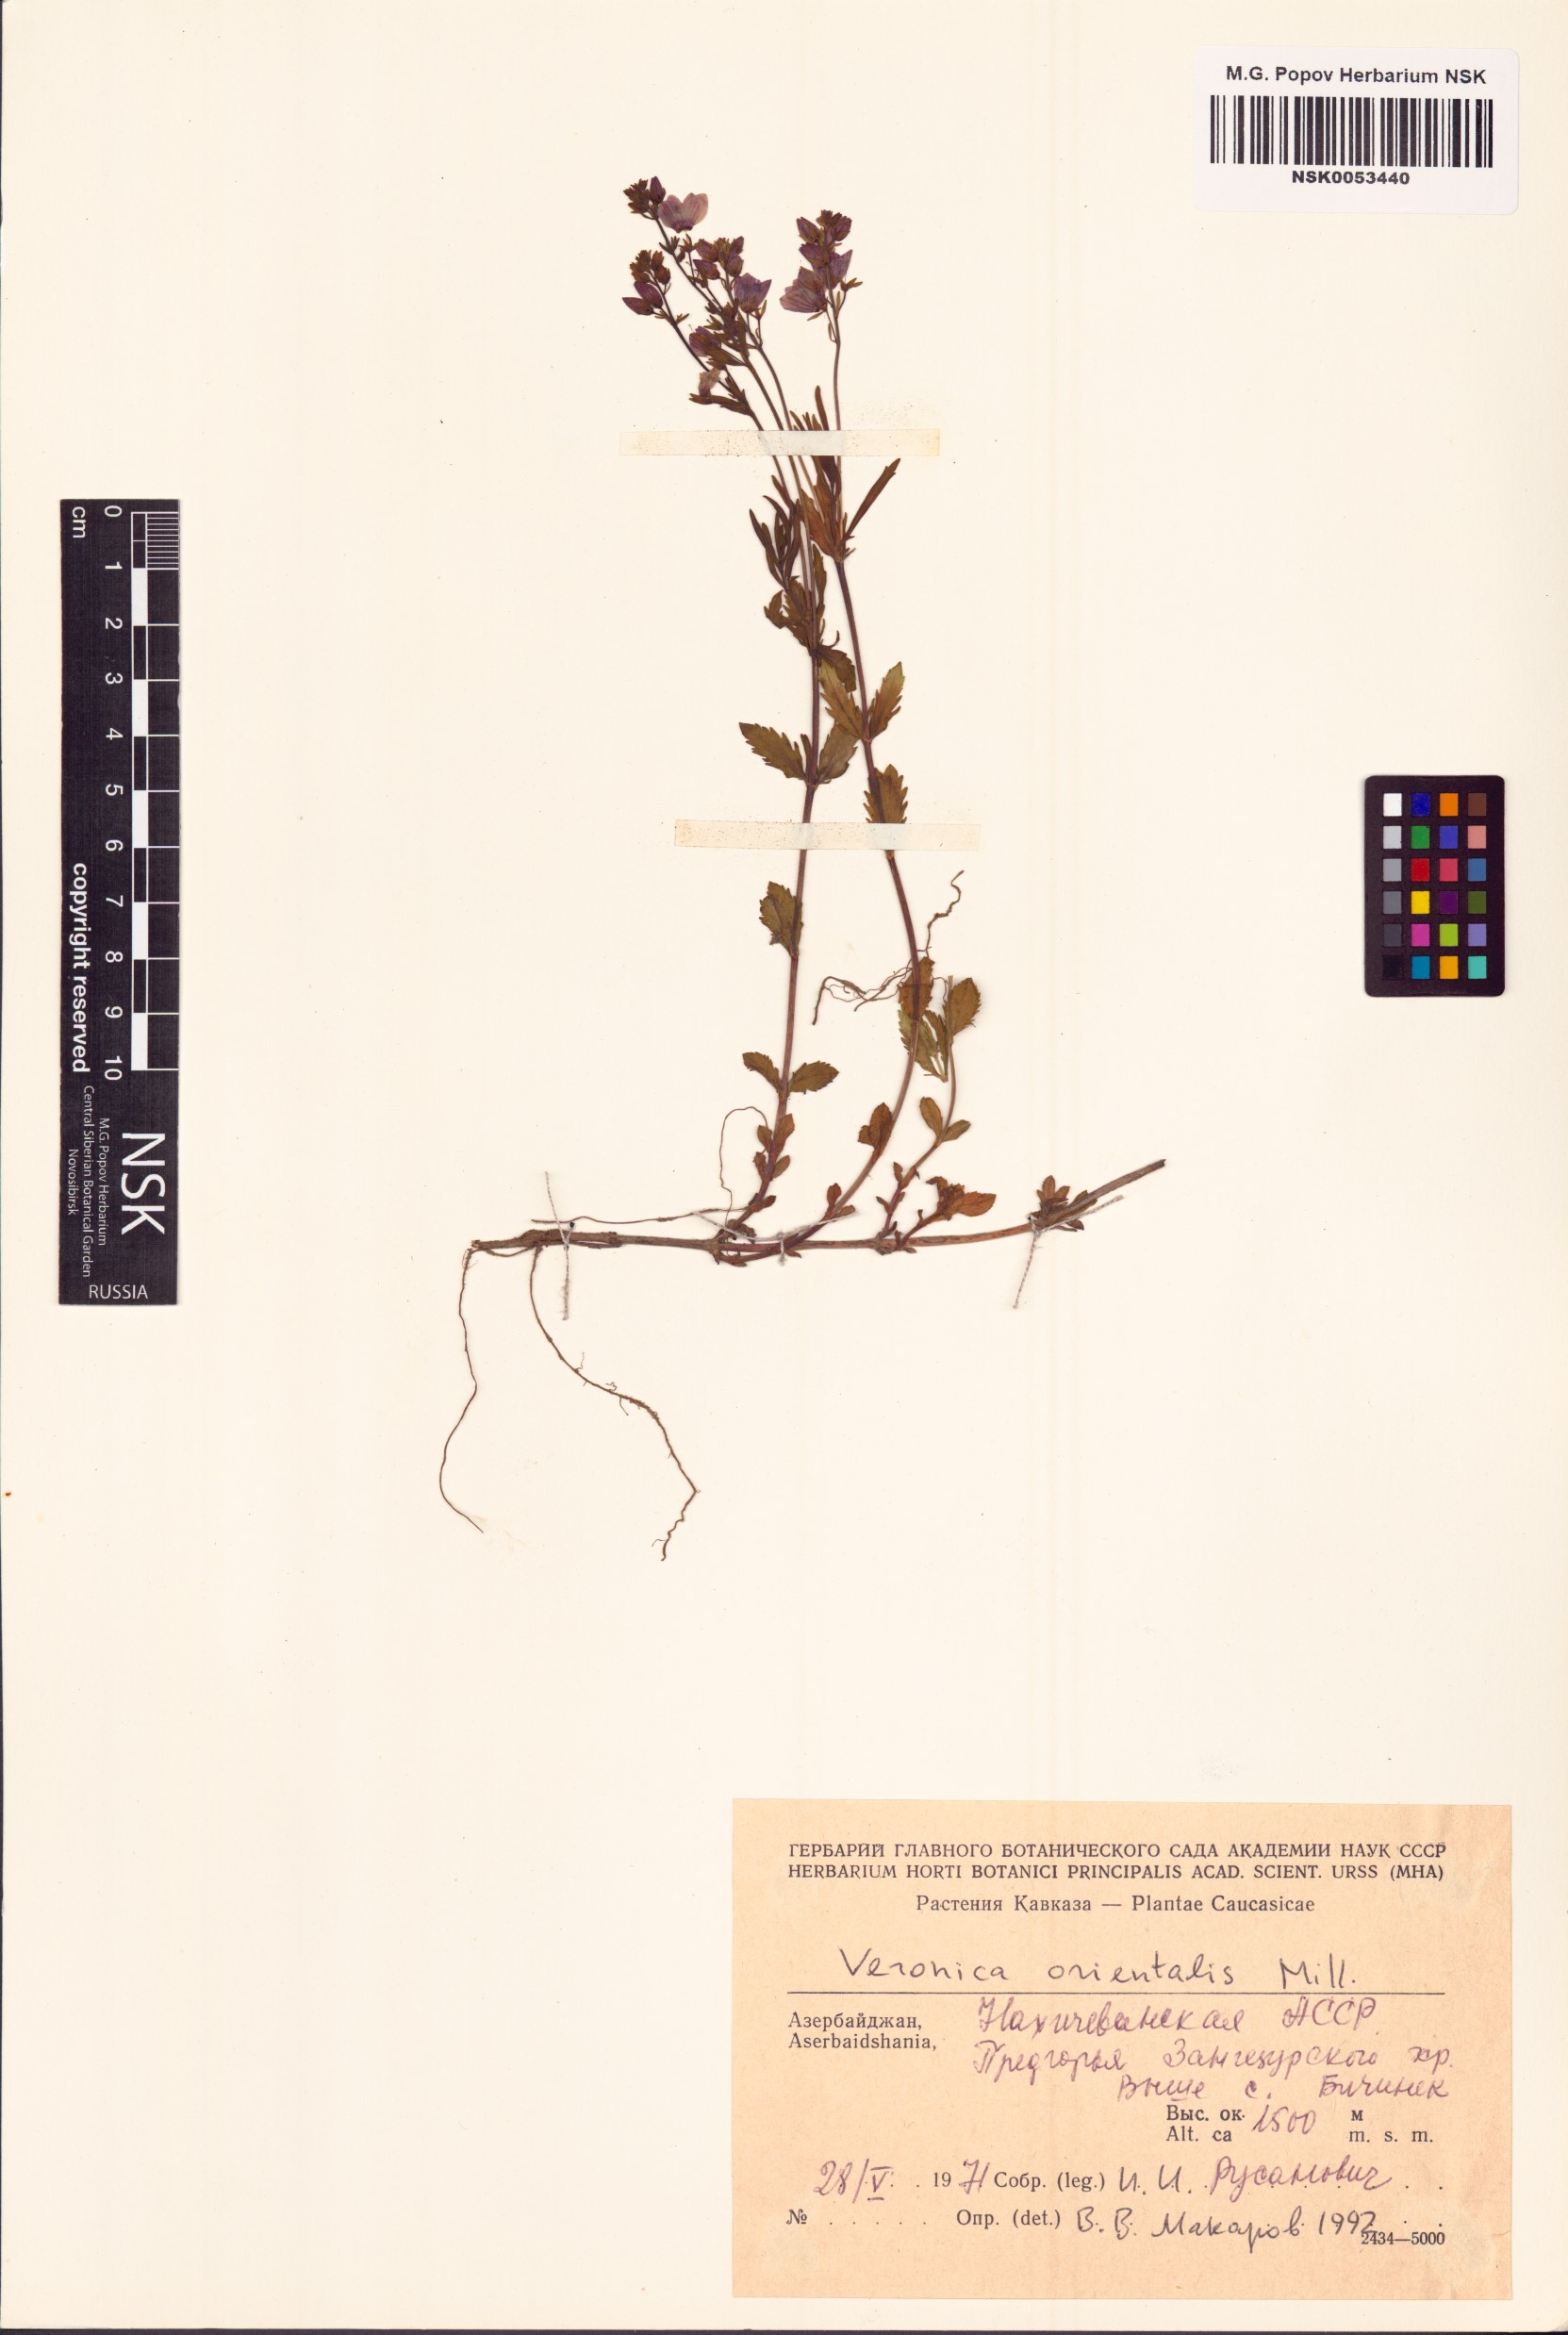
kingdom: Plantae
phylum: Tracheophyta
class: Magnoliopsida
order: Lamiales
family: Plantaginaceae
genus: Veronica
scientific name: Veronica orientalis
